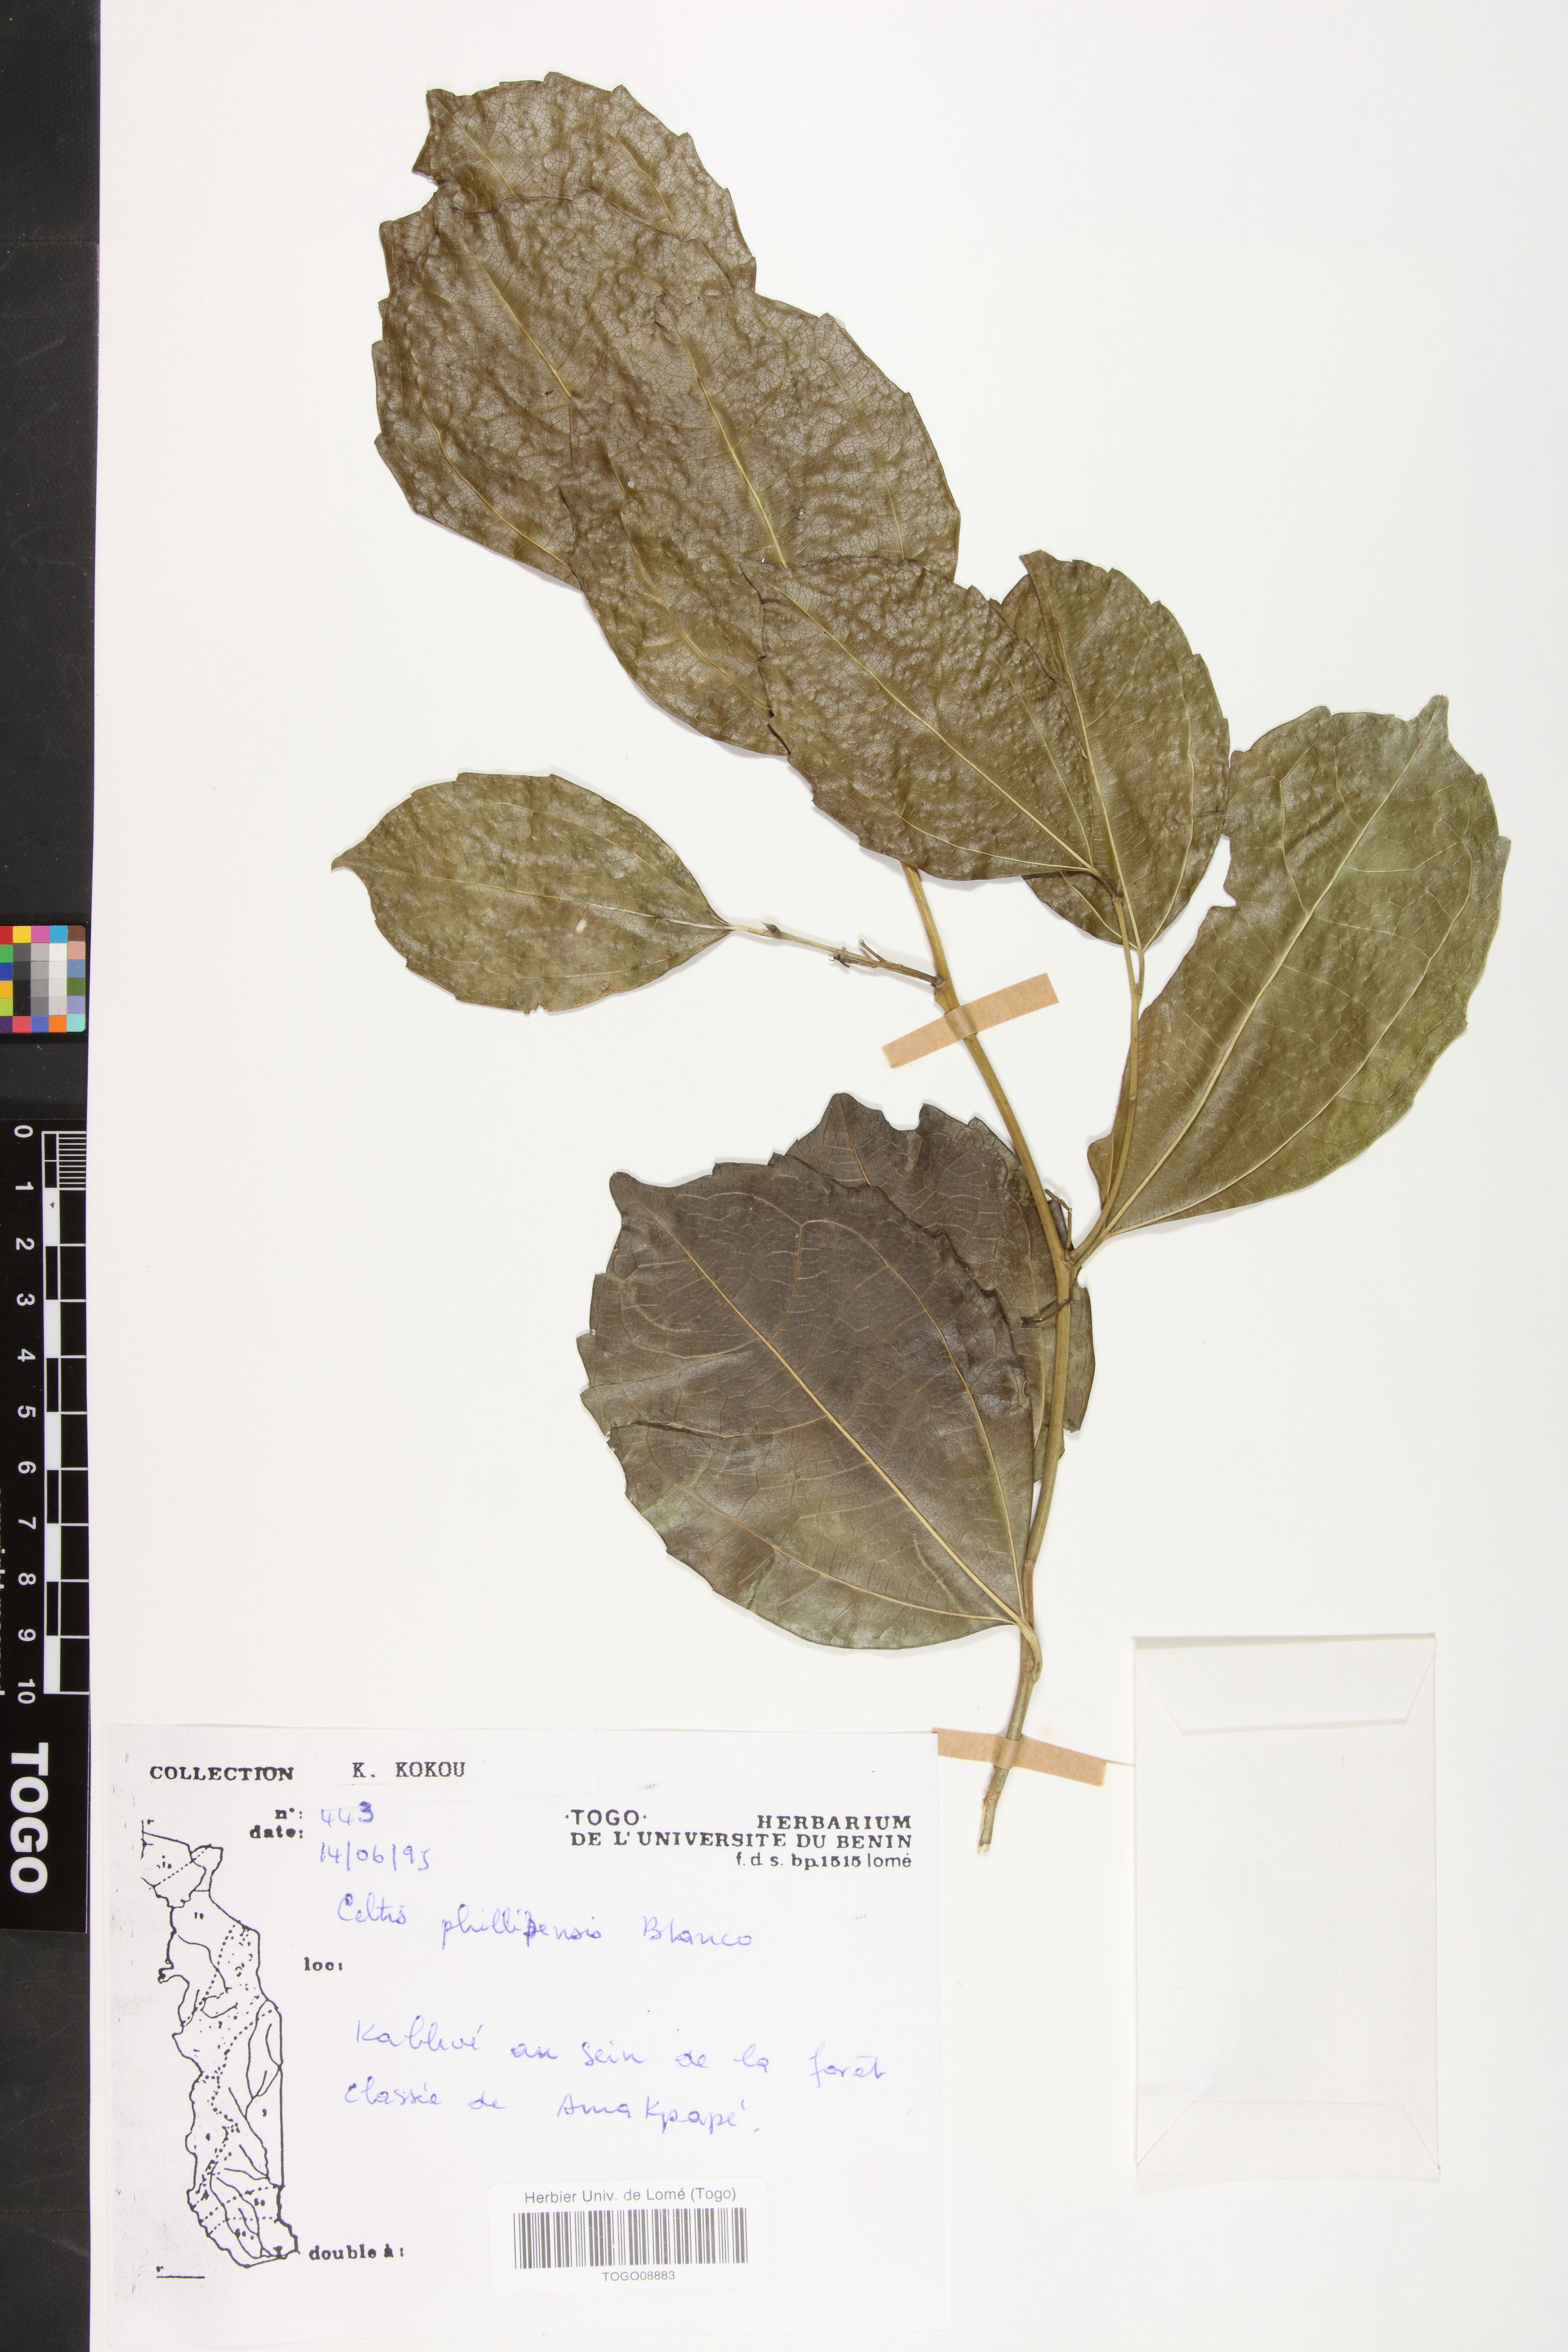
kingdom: Plantae
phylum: Tracheophyta
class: Magnoliopsida
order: Rosales
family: Cannabaceae
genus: Celtis
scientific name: Celtis philippensis
